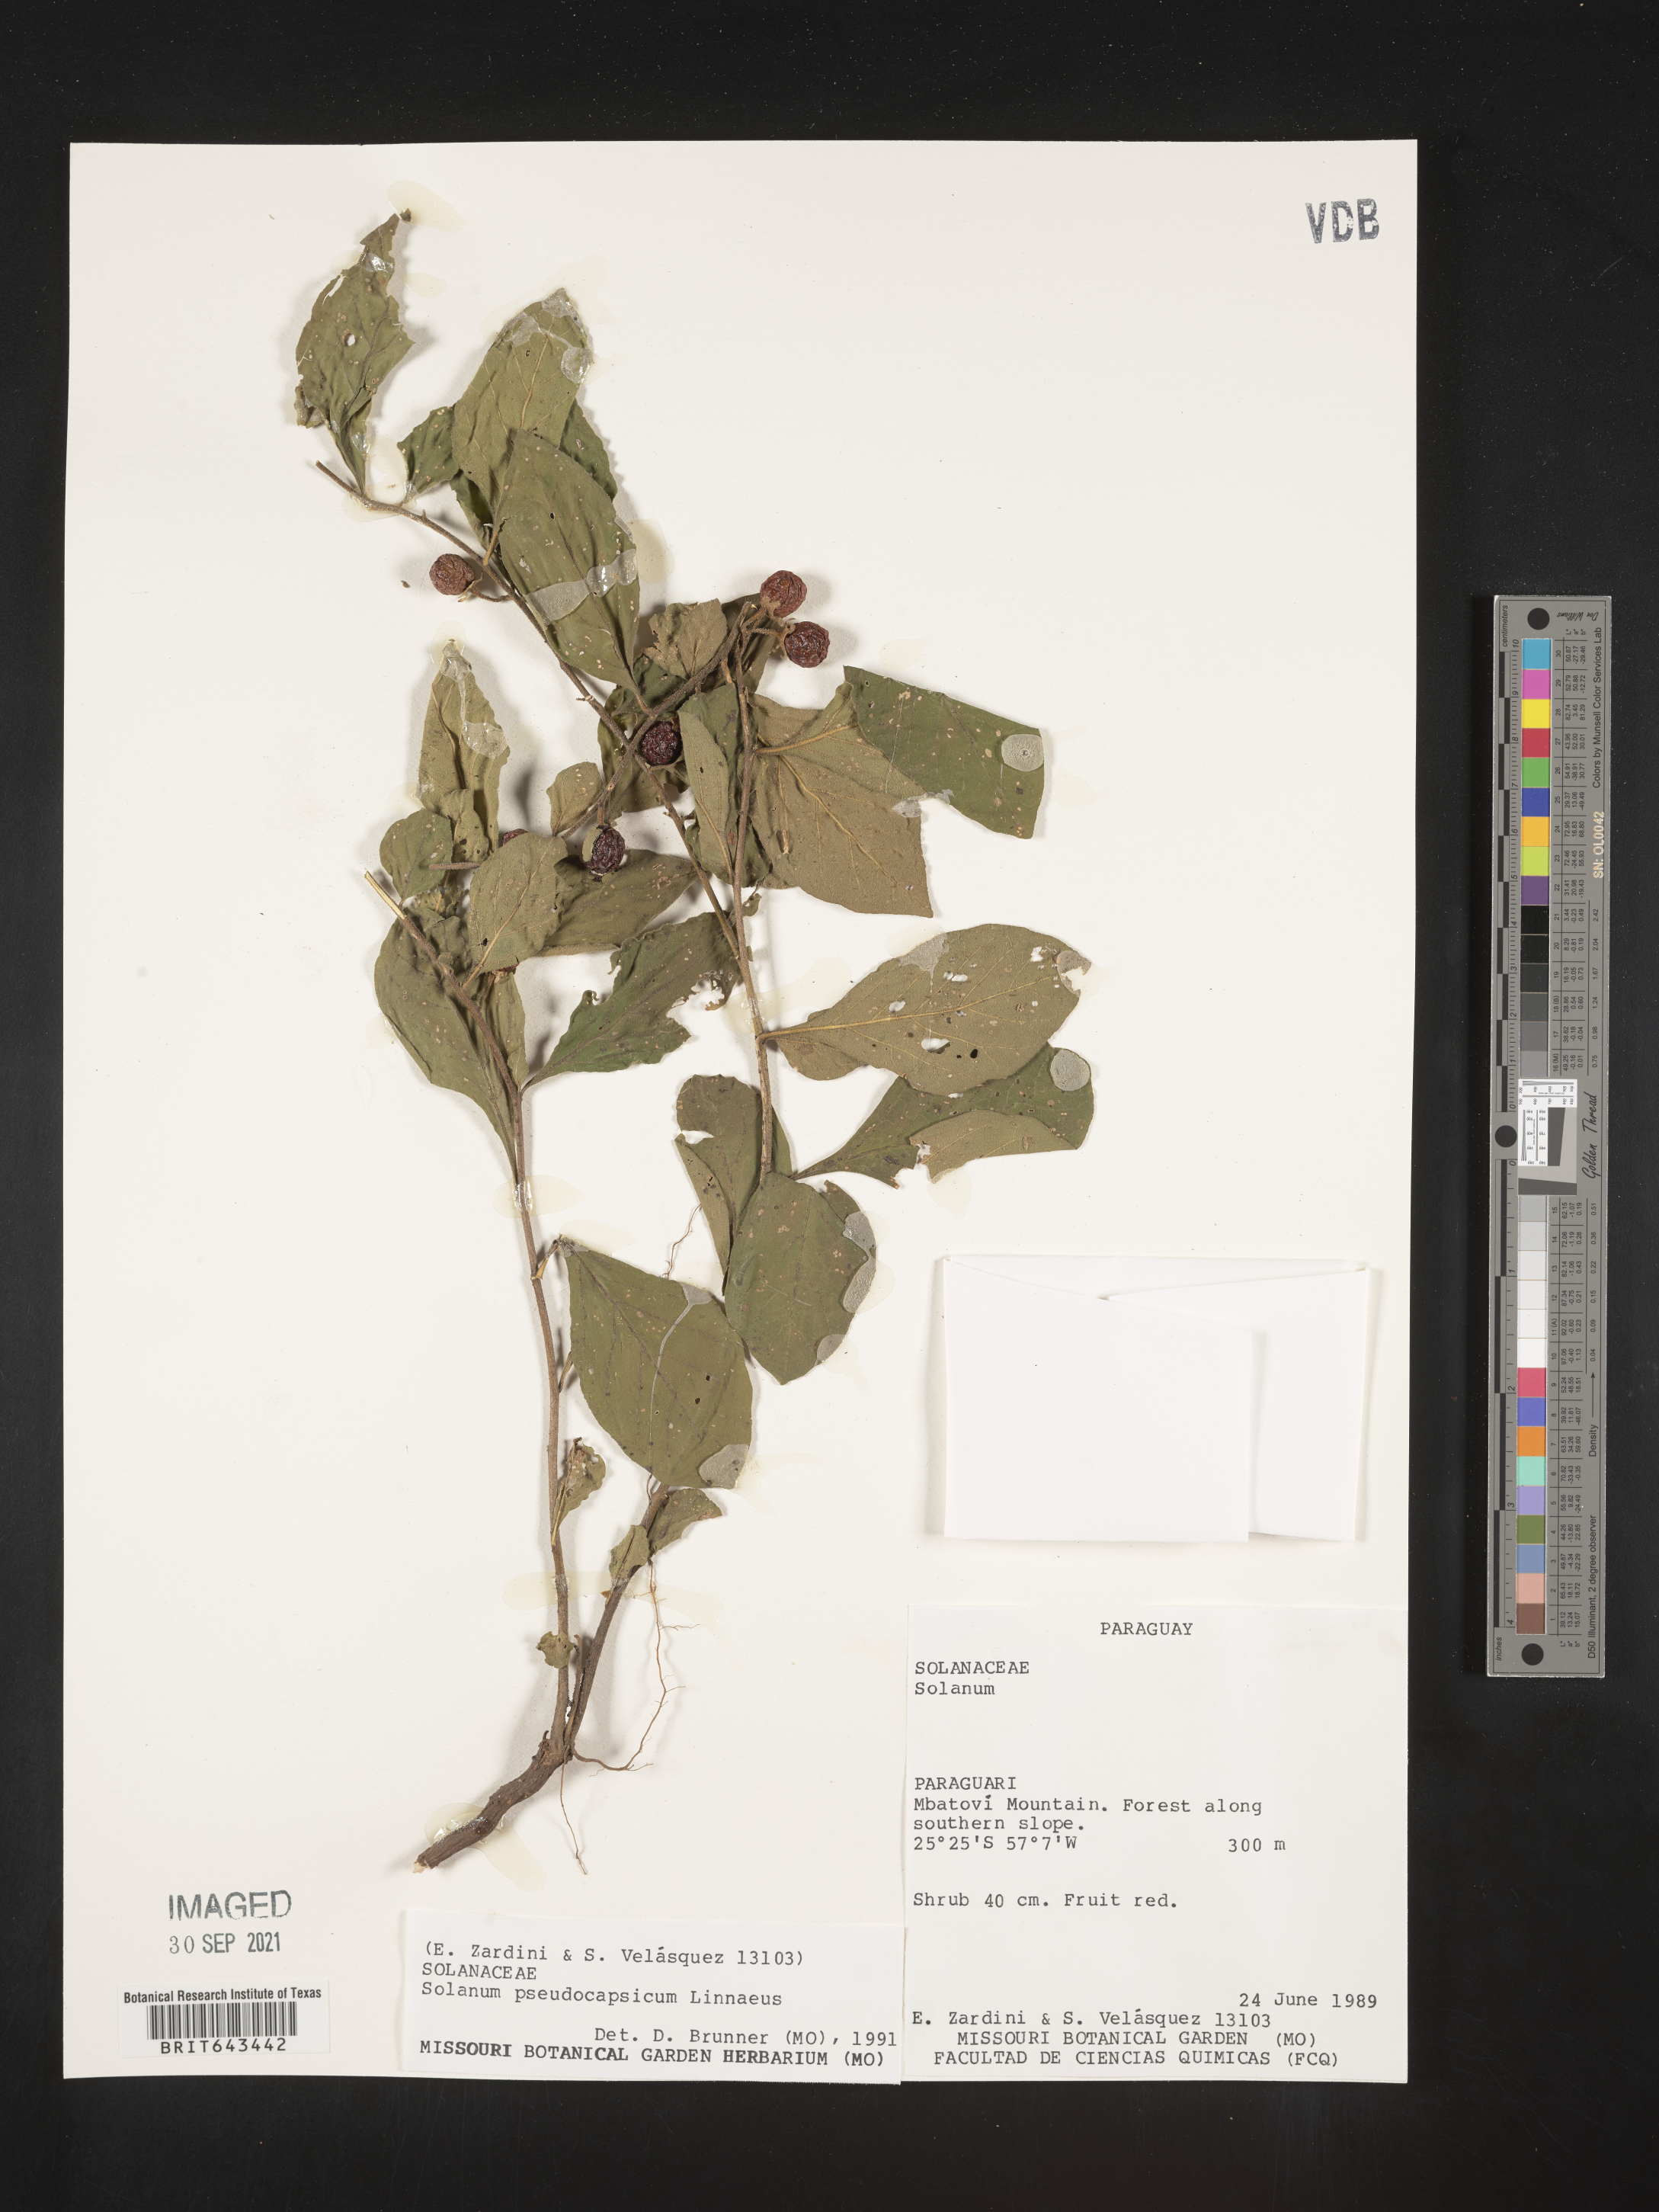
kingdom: Plantae
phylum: Tracheophyta
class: Magnoliopsida
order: Solanales
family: Solanaceae
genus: Solanum
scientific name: Solanum
